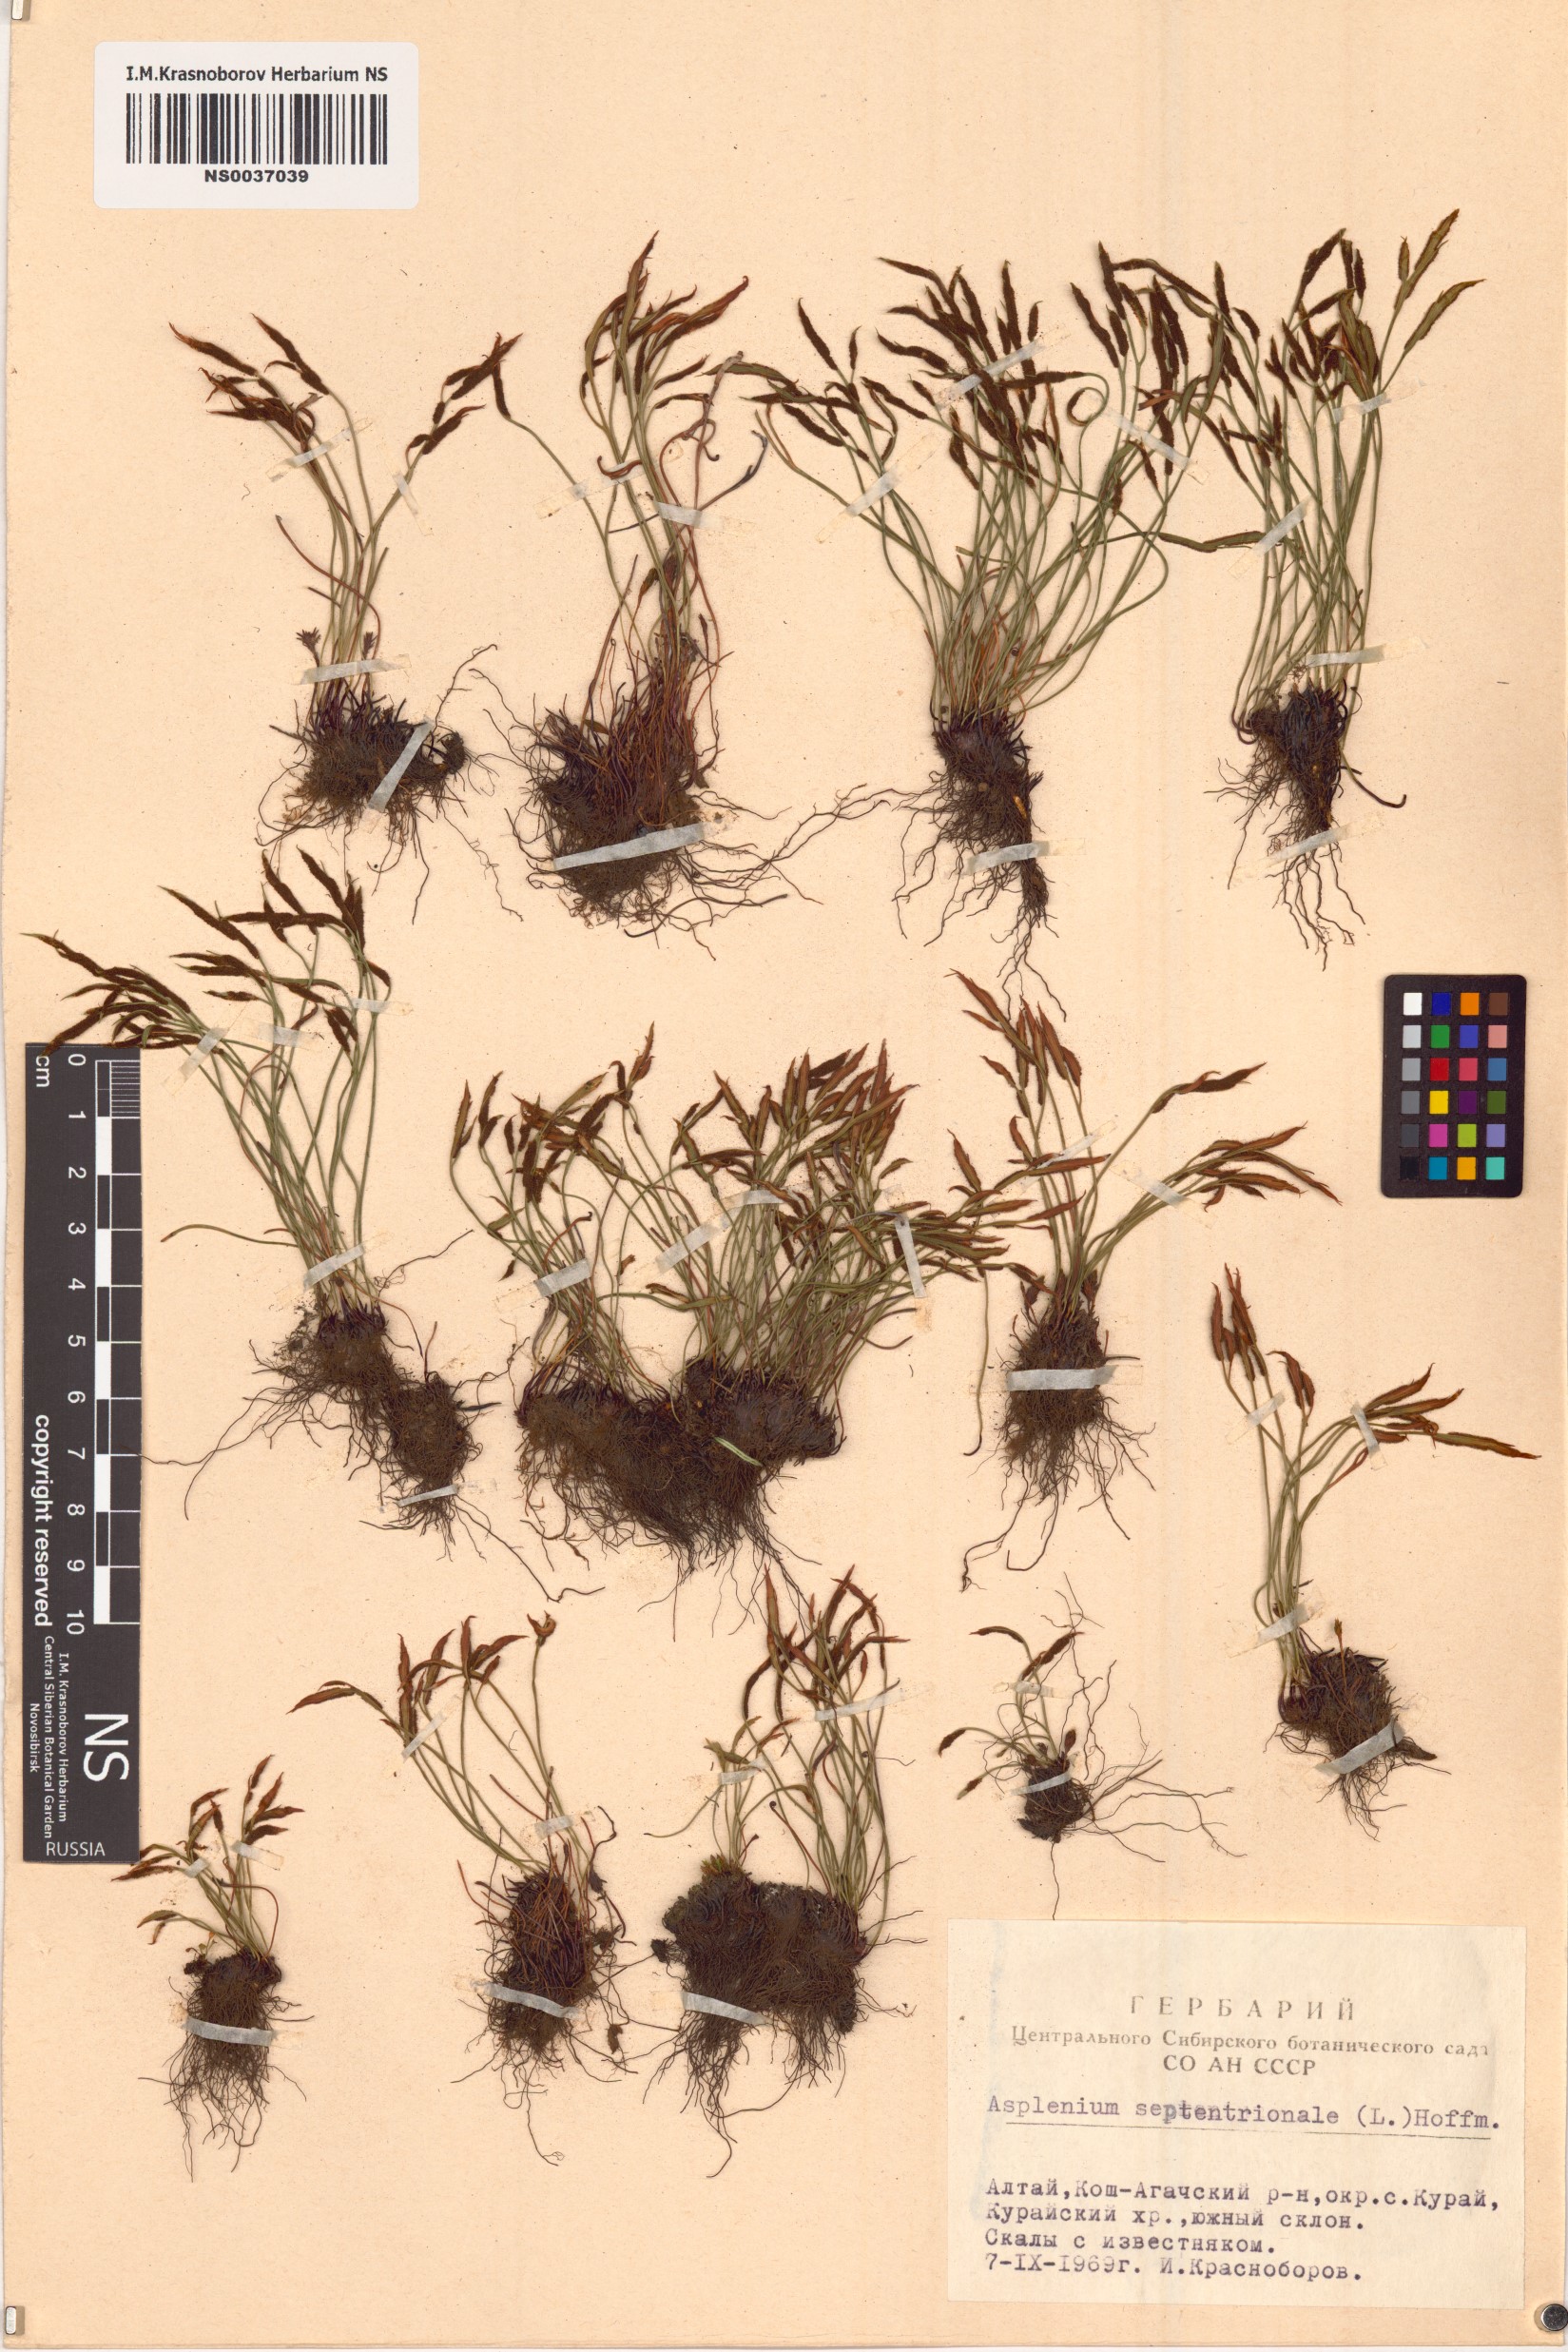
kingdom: Plantae
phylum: Tracheophyta
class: Polypodiopsida
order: Polypodiales
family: Aspleniaceae
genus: Asplenium
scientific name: Asplenium septentrionale
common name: Forked spleenwort
